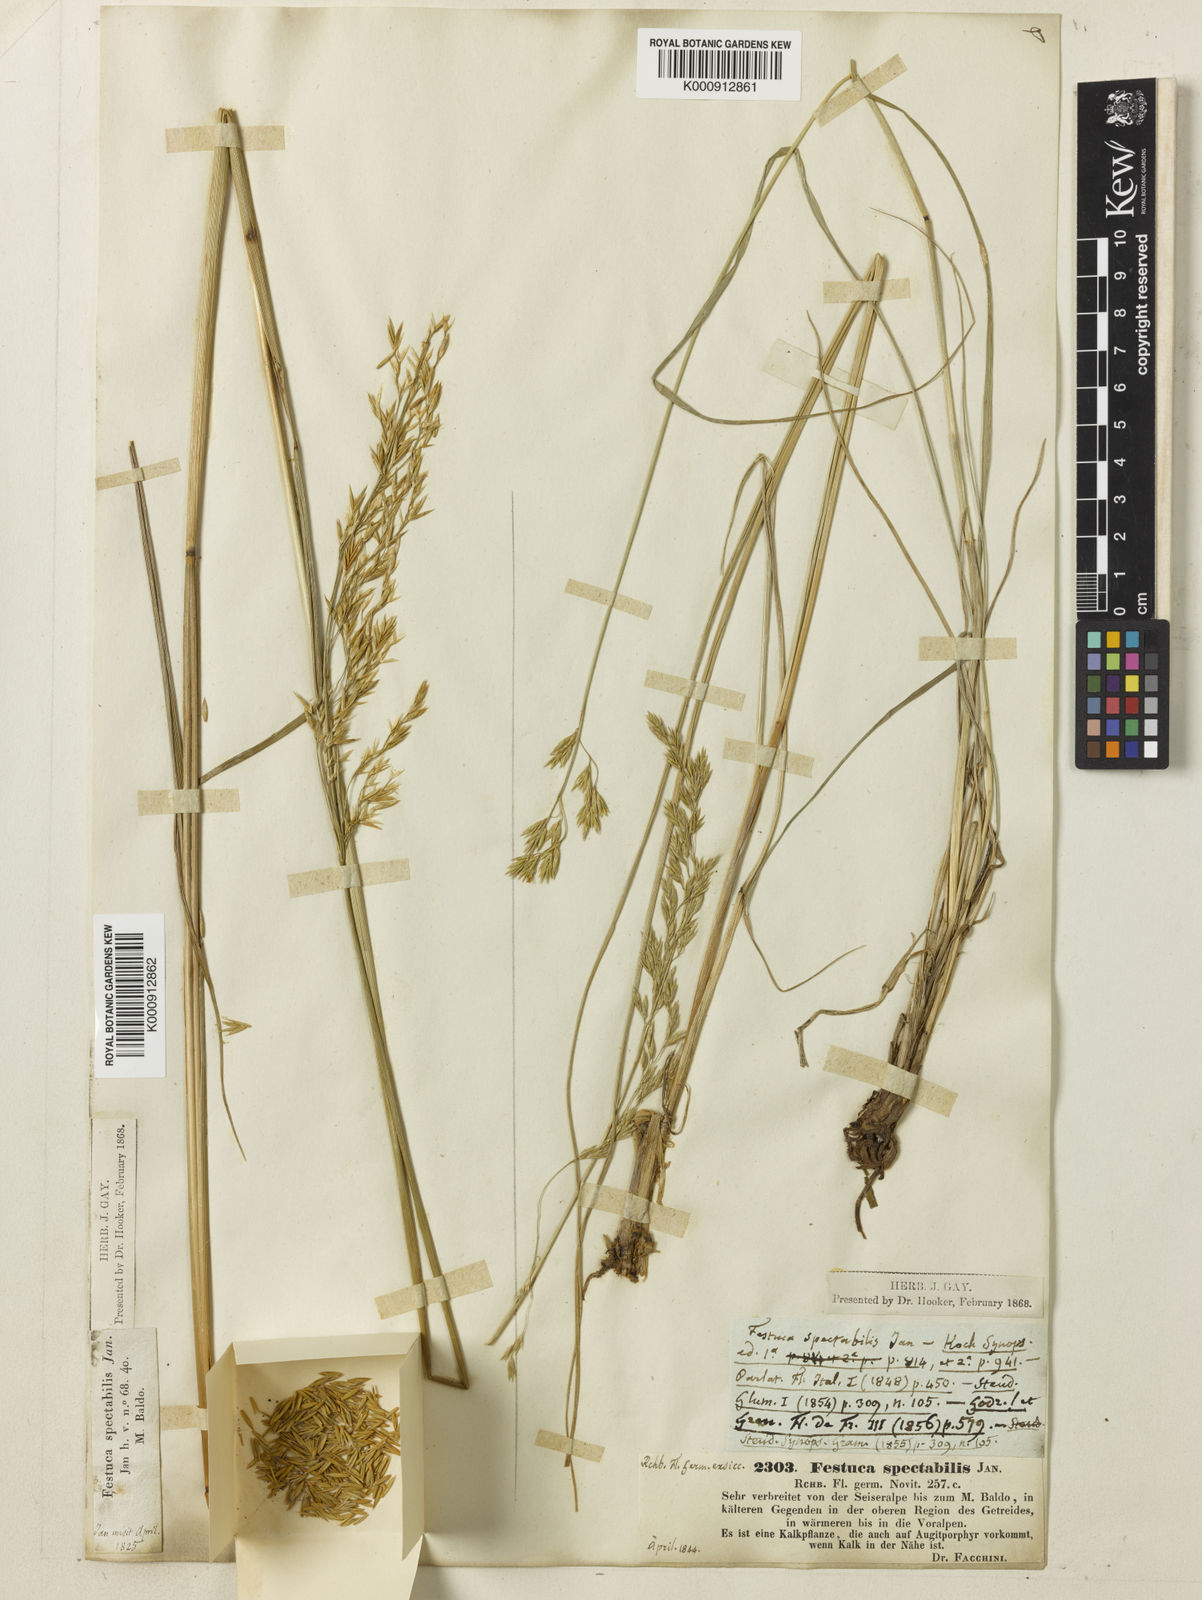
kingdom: Plantae
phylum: Tracheophyta
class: Liliopsida
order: Poales
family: Poaceae
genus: Festuca
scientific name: Festuca
